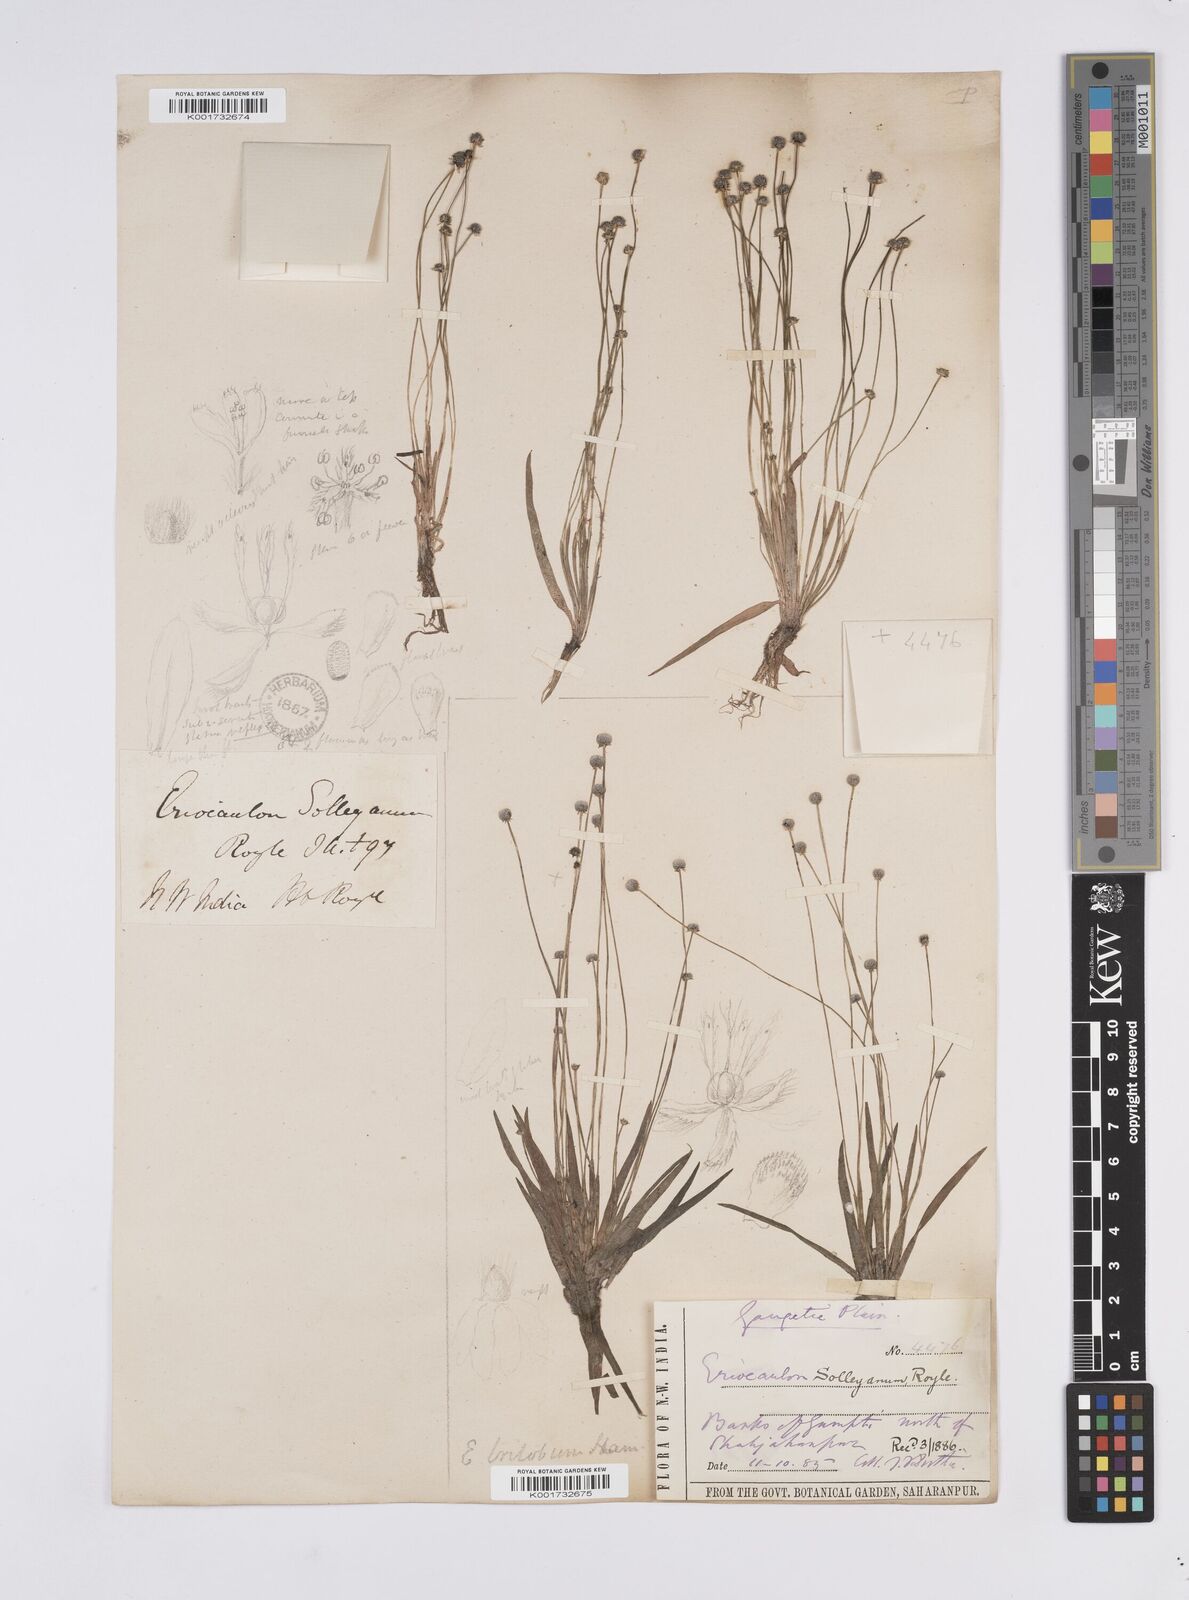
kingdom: Plantae
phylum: Tracheophyta
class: Liliopsida
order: Poales
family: Eriocaulaceae
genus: Eriocaulon
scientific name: Eriocaulon sollyanum
